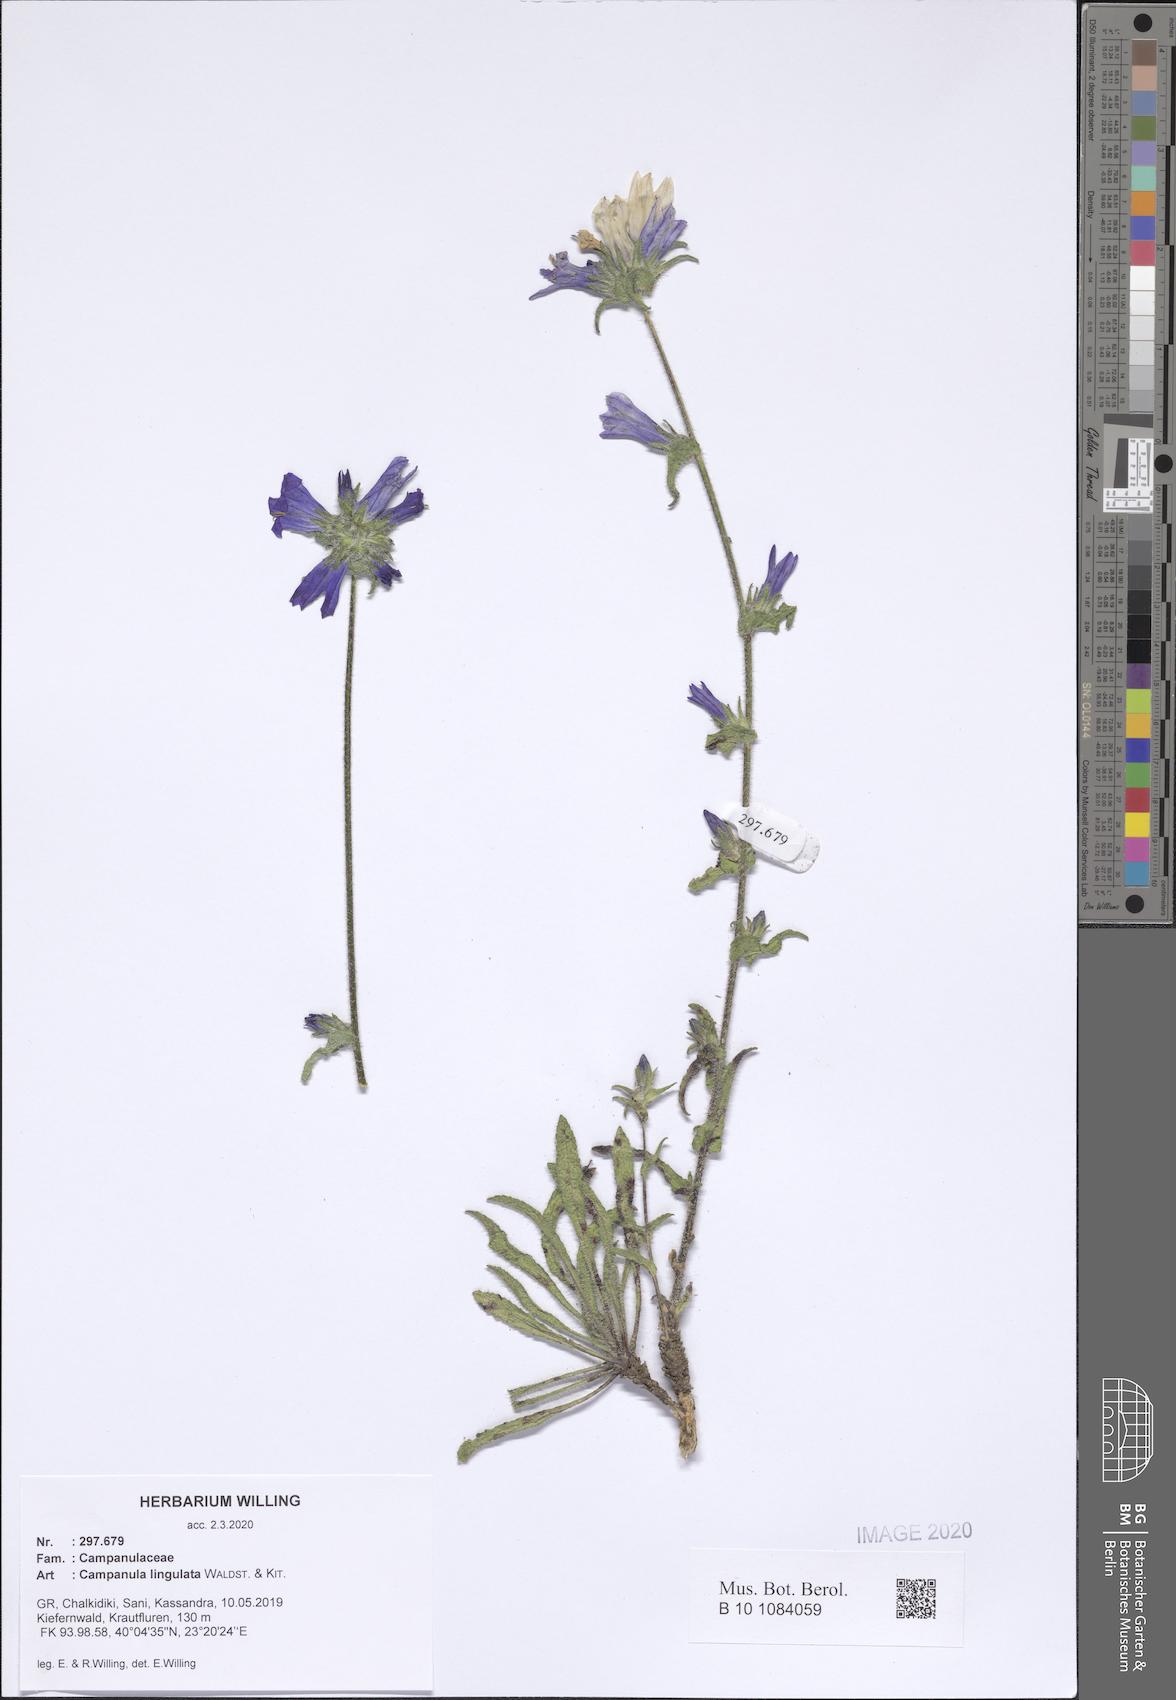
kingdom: Plantae
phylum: Tracheophyta
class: Magnoliopsida
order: Asterales
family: Campanulaceae
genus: Campanula
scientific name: Campanula lingulata
